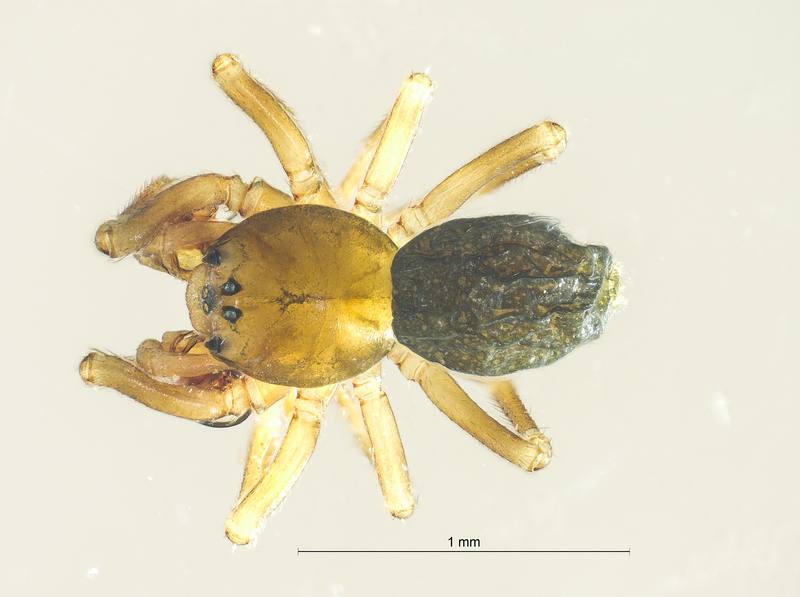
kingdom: Animalia
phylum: Arthropoda
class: Arachnida
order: Araneae
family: Linyphiidae
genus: Panamomops
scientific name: Panamomops sulcifrons
